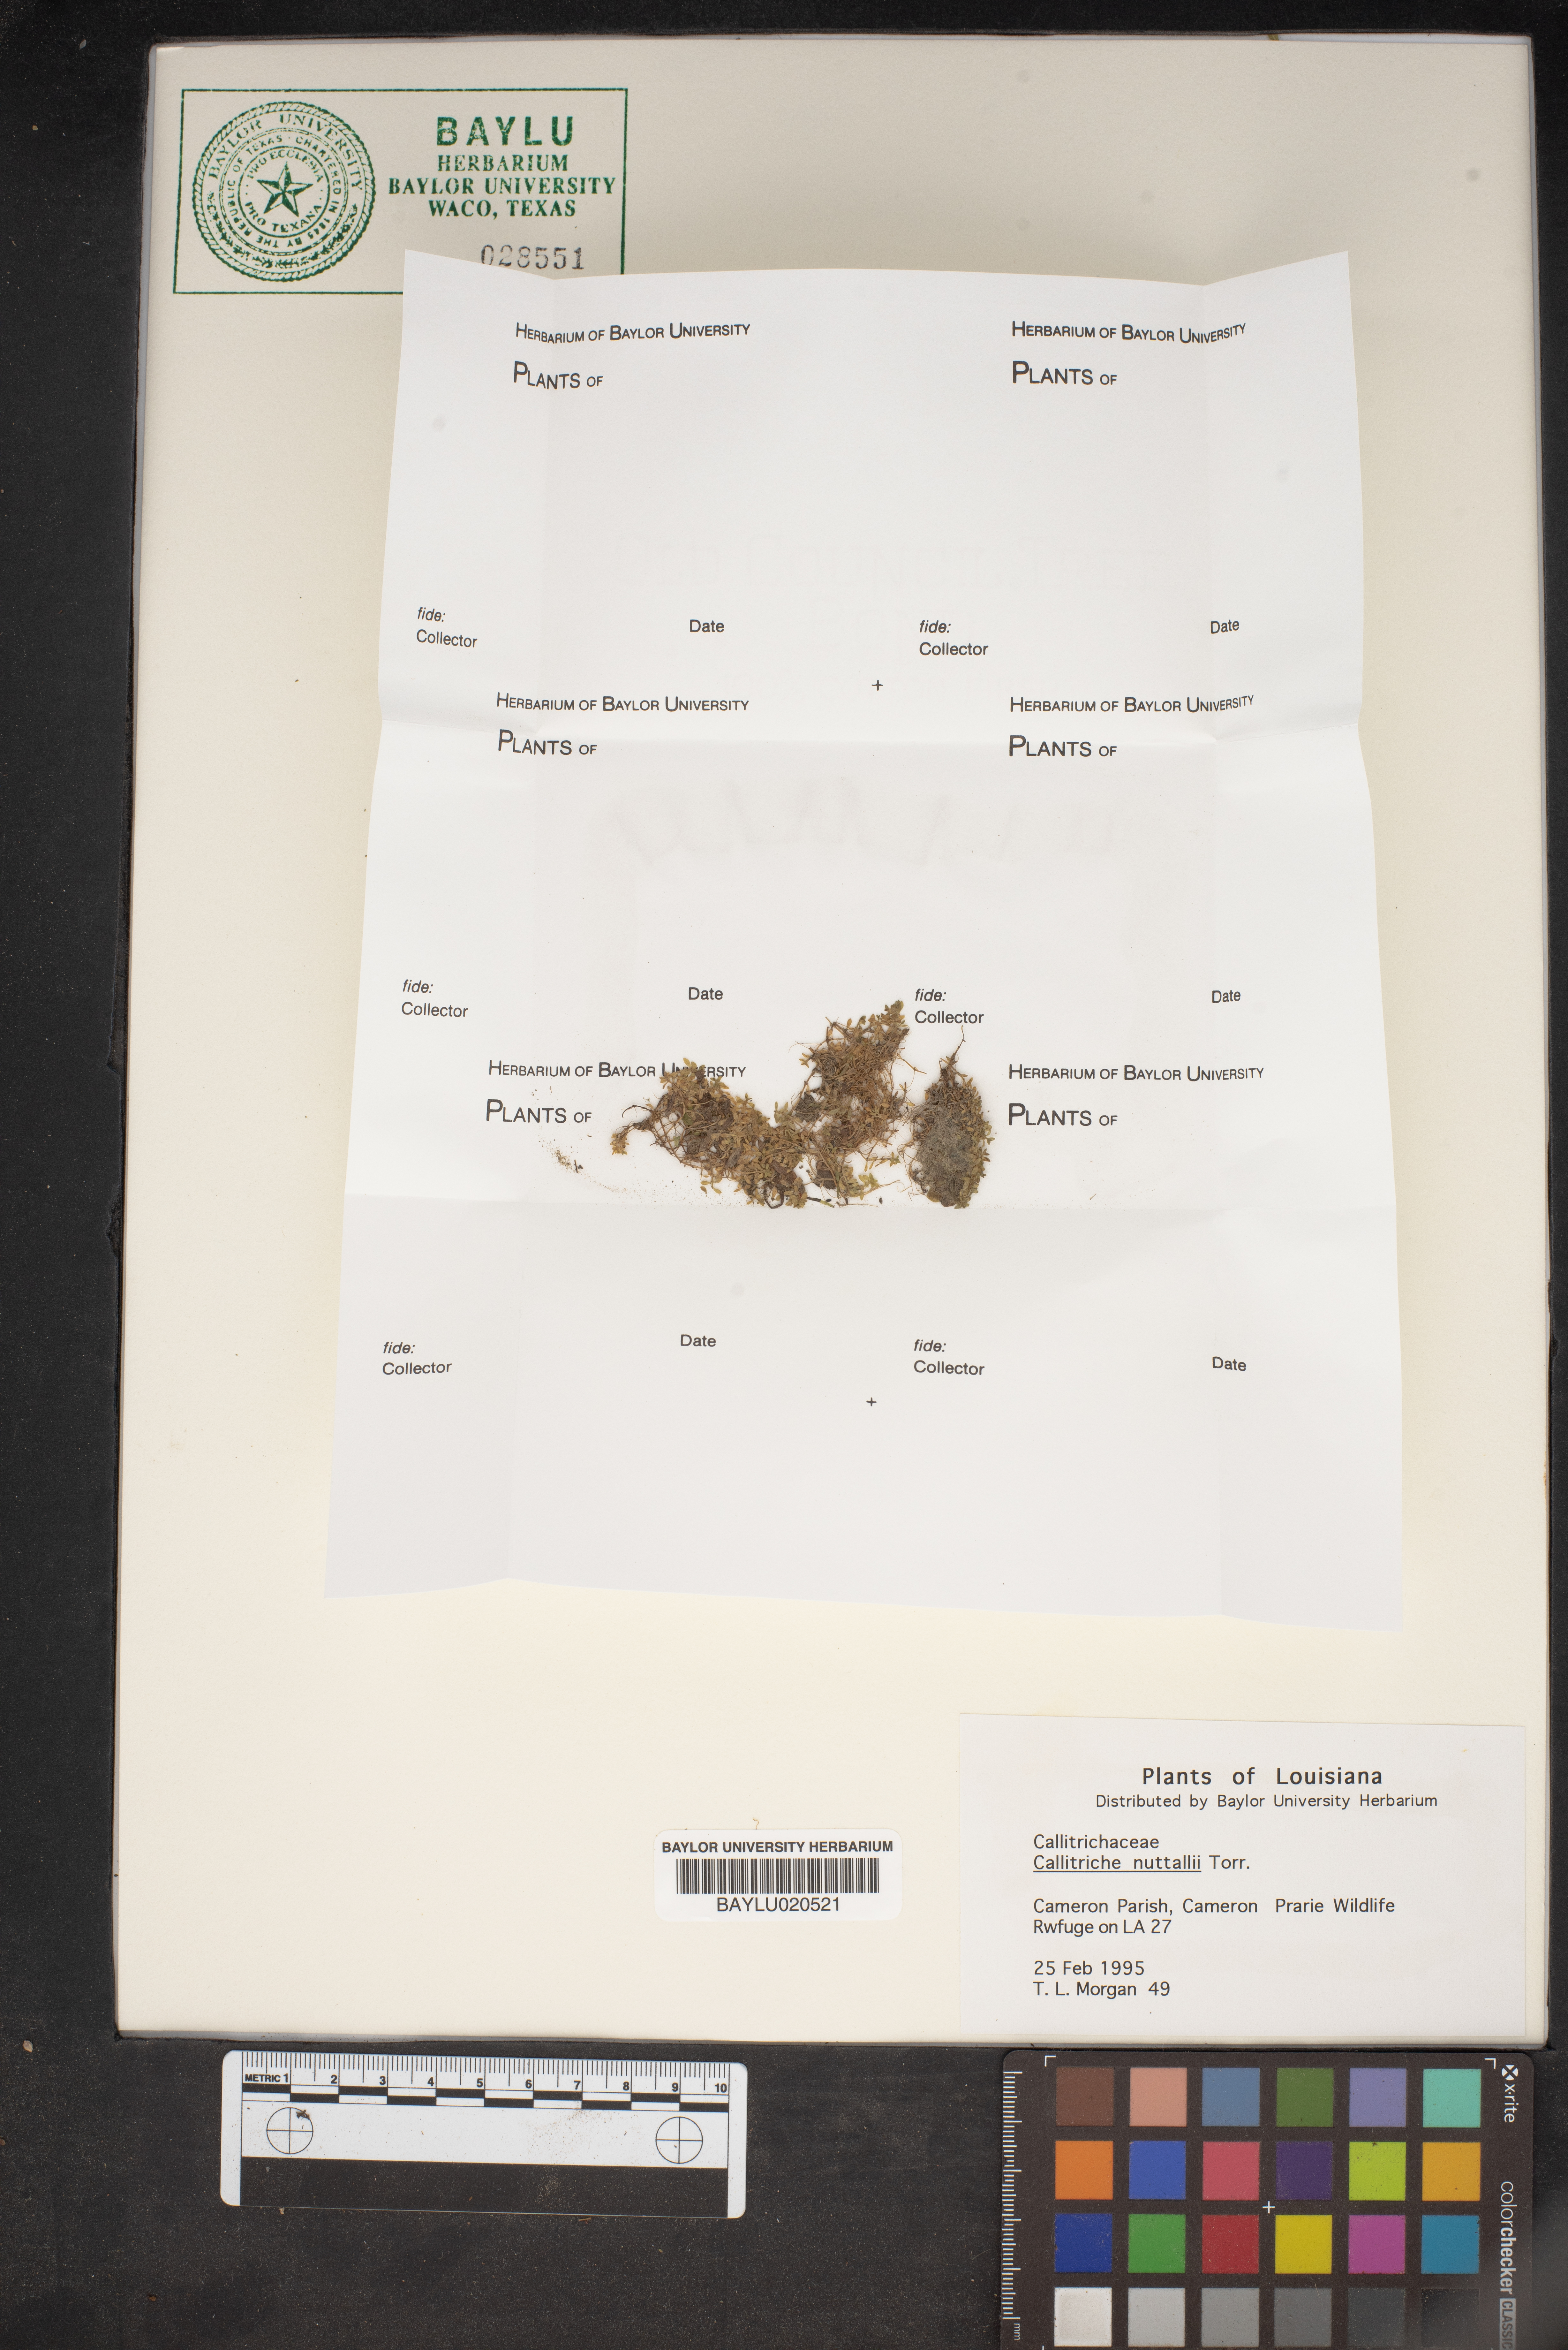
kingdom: Plantae
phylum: Tracheophyta
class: Magnoliopsida
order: Lamiales
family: Plantaginaceae
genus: Callitriche
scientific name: Callitriche pedunculosa
